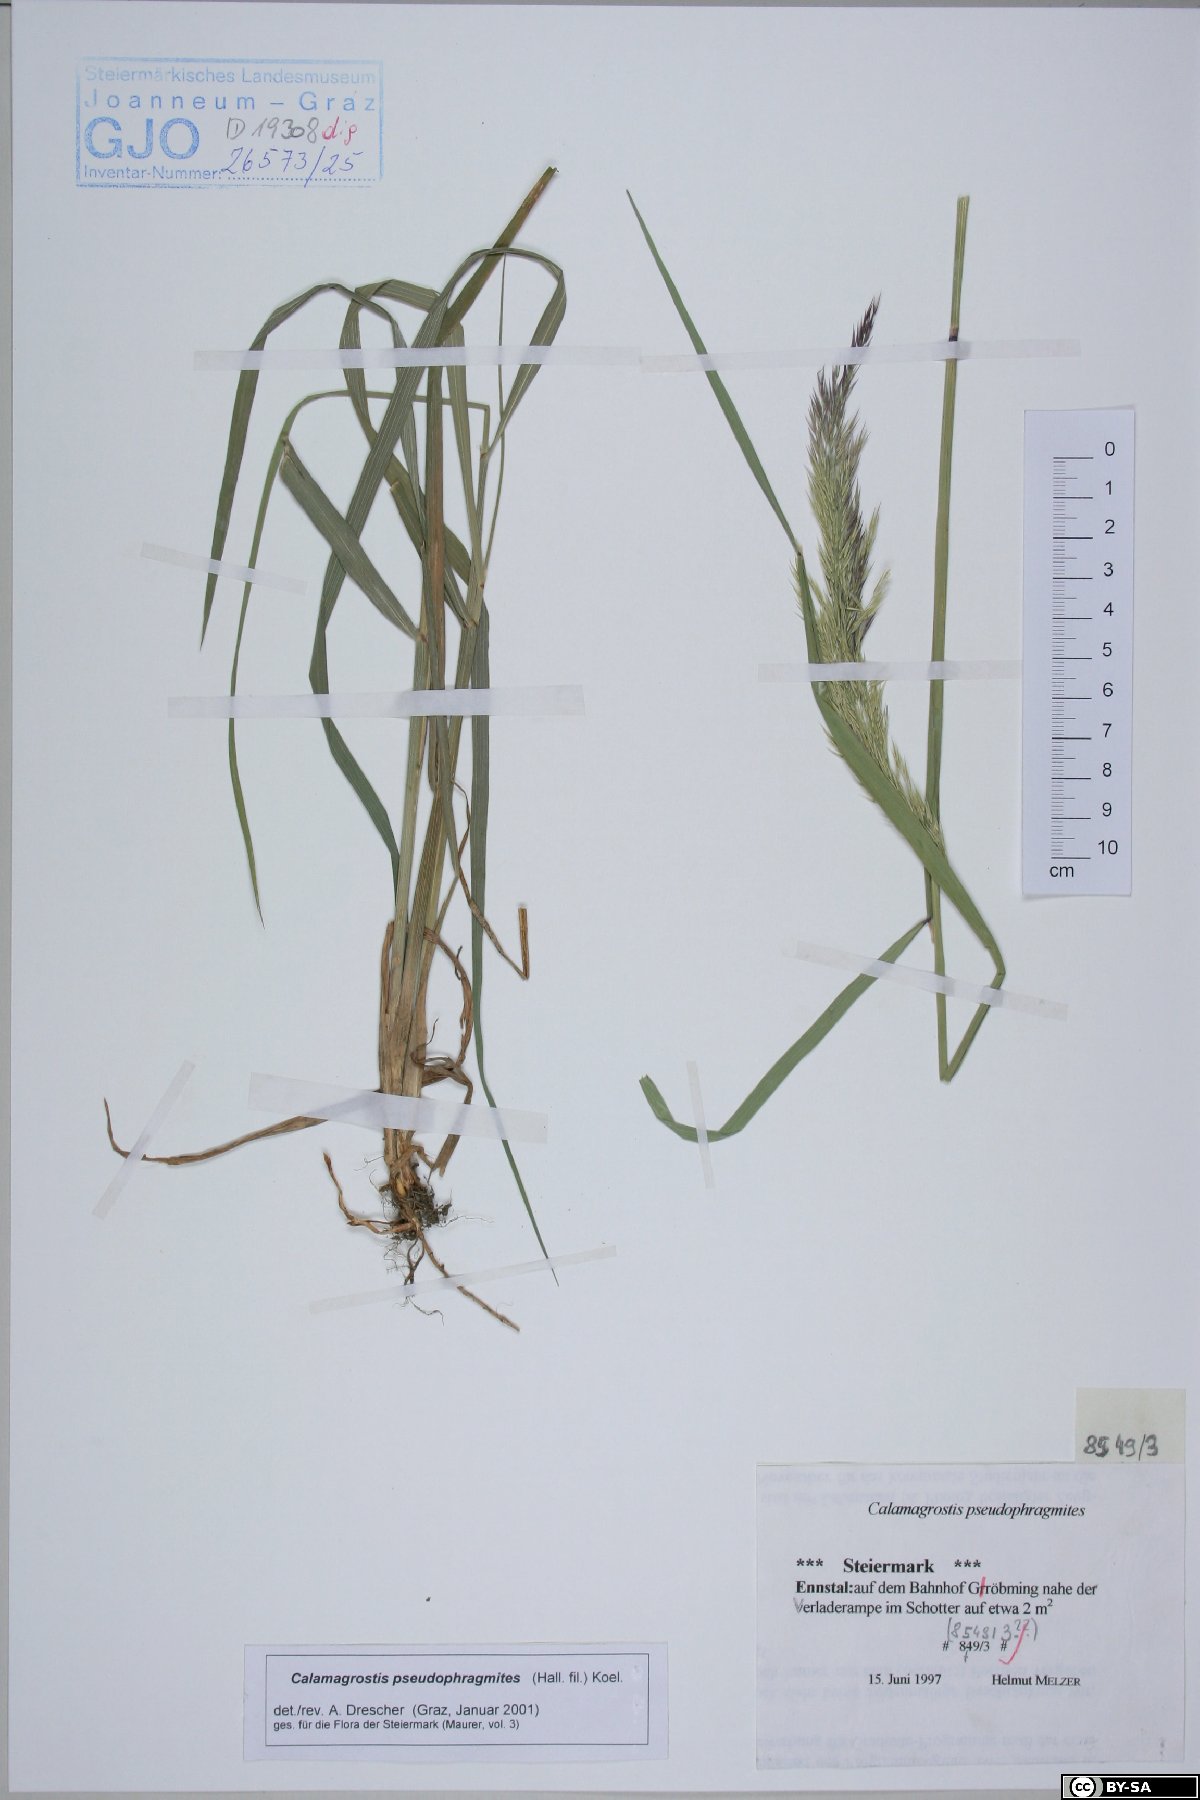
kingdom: Plantae
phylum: Tracheophyta
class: Liliopsida
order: Poales
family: Poaceae
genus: Calamagrostis
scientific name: Calamagrostis pseudophragmites
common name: Coastal small-reed
